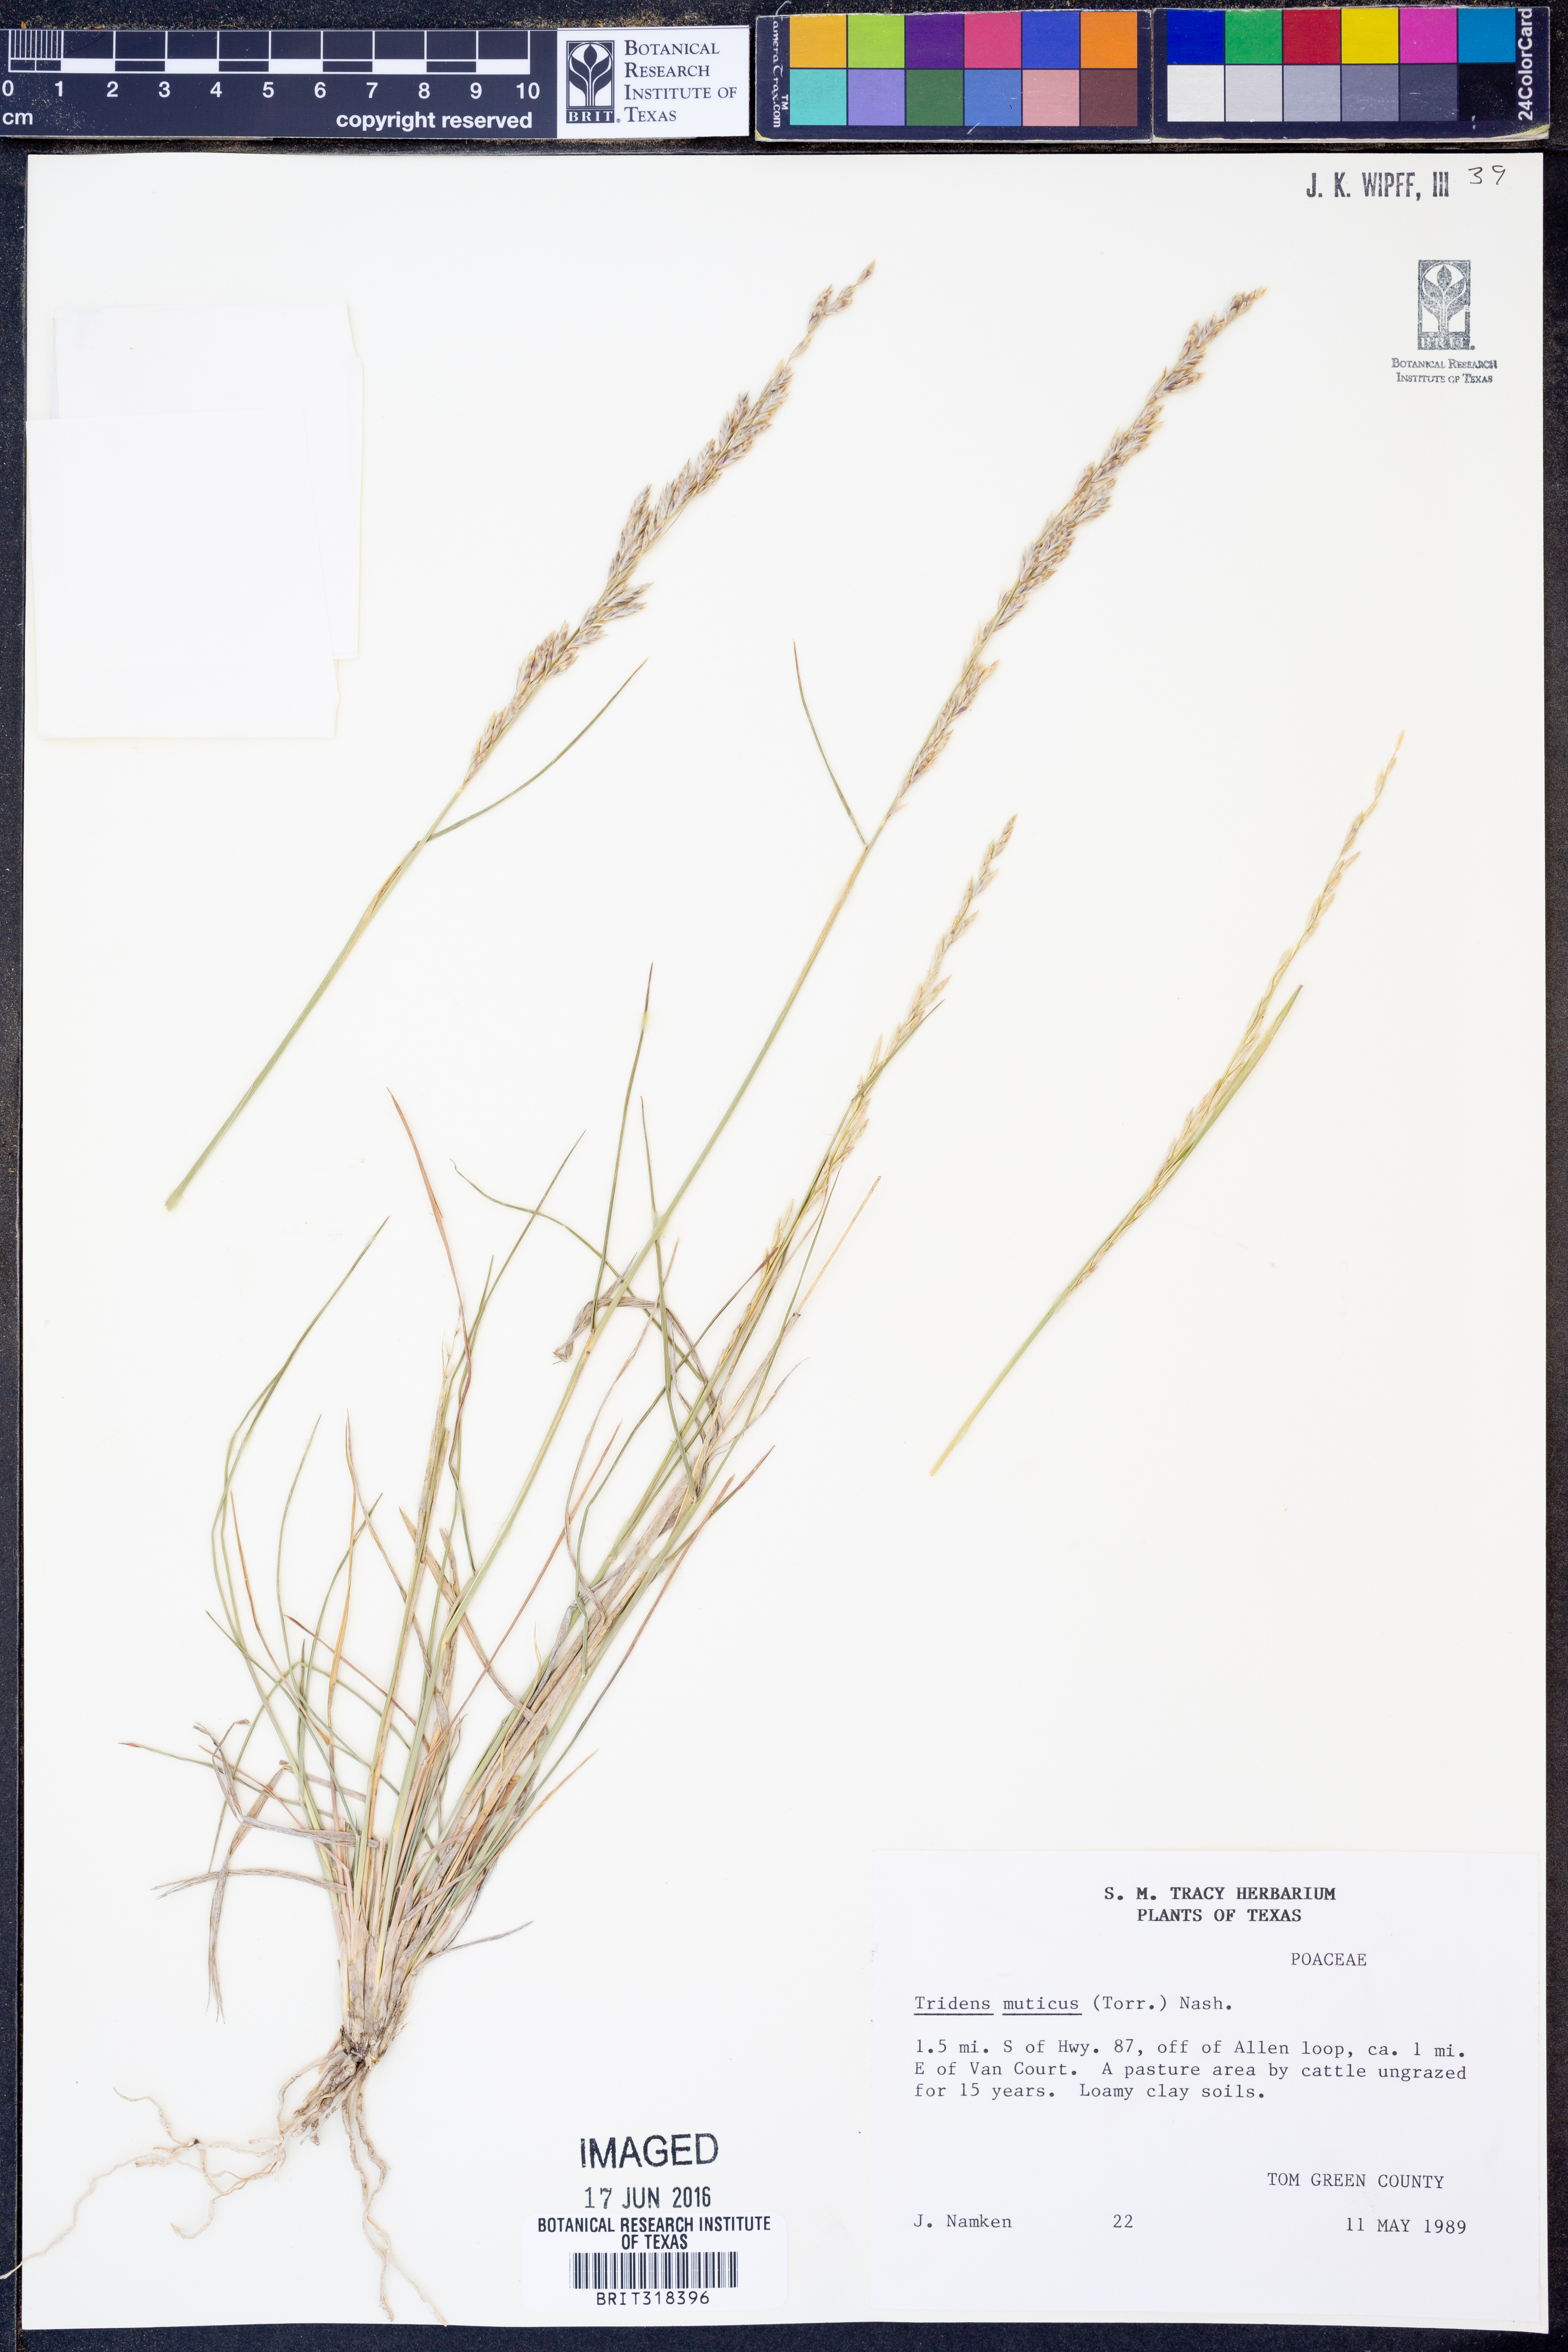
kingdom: Plantae
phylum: Tracheophyta
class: Liliopsida
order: Poales
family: Poaceae
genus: Tridentopsis
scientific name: Tridentopsis mutica
